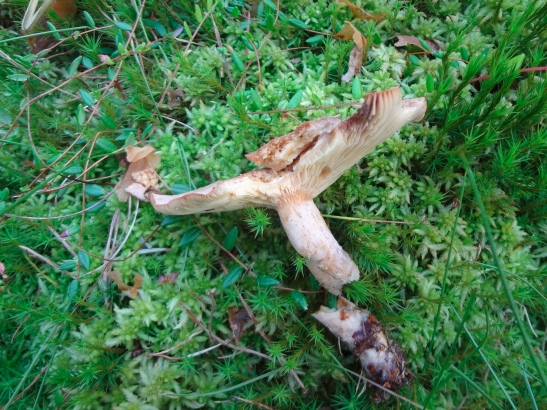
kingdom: Fungi
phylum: Basidiomycota
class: Agaricomycetes
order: Russulales
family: Russulaceae
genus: Lactarius
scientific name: Lactarius helvus
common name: mose-mælkehat
